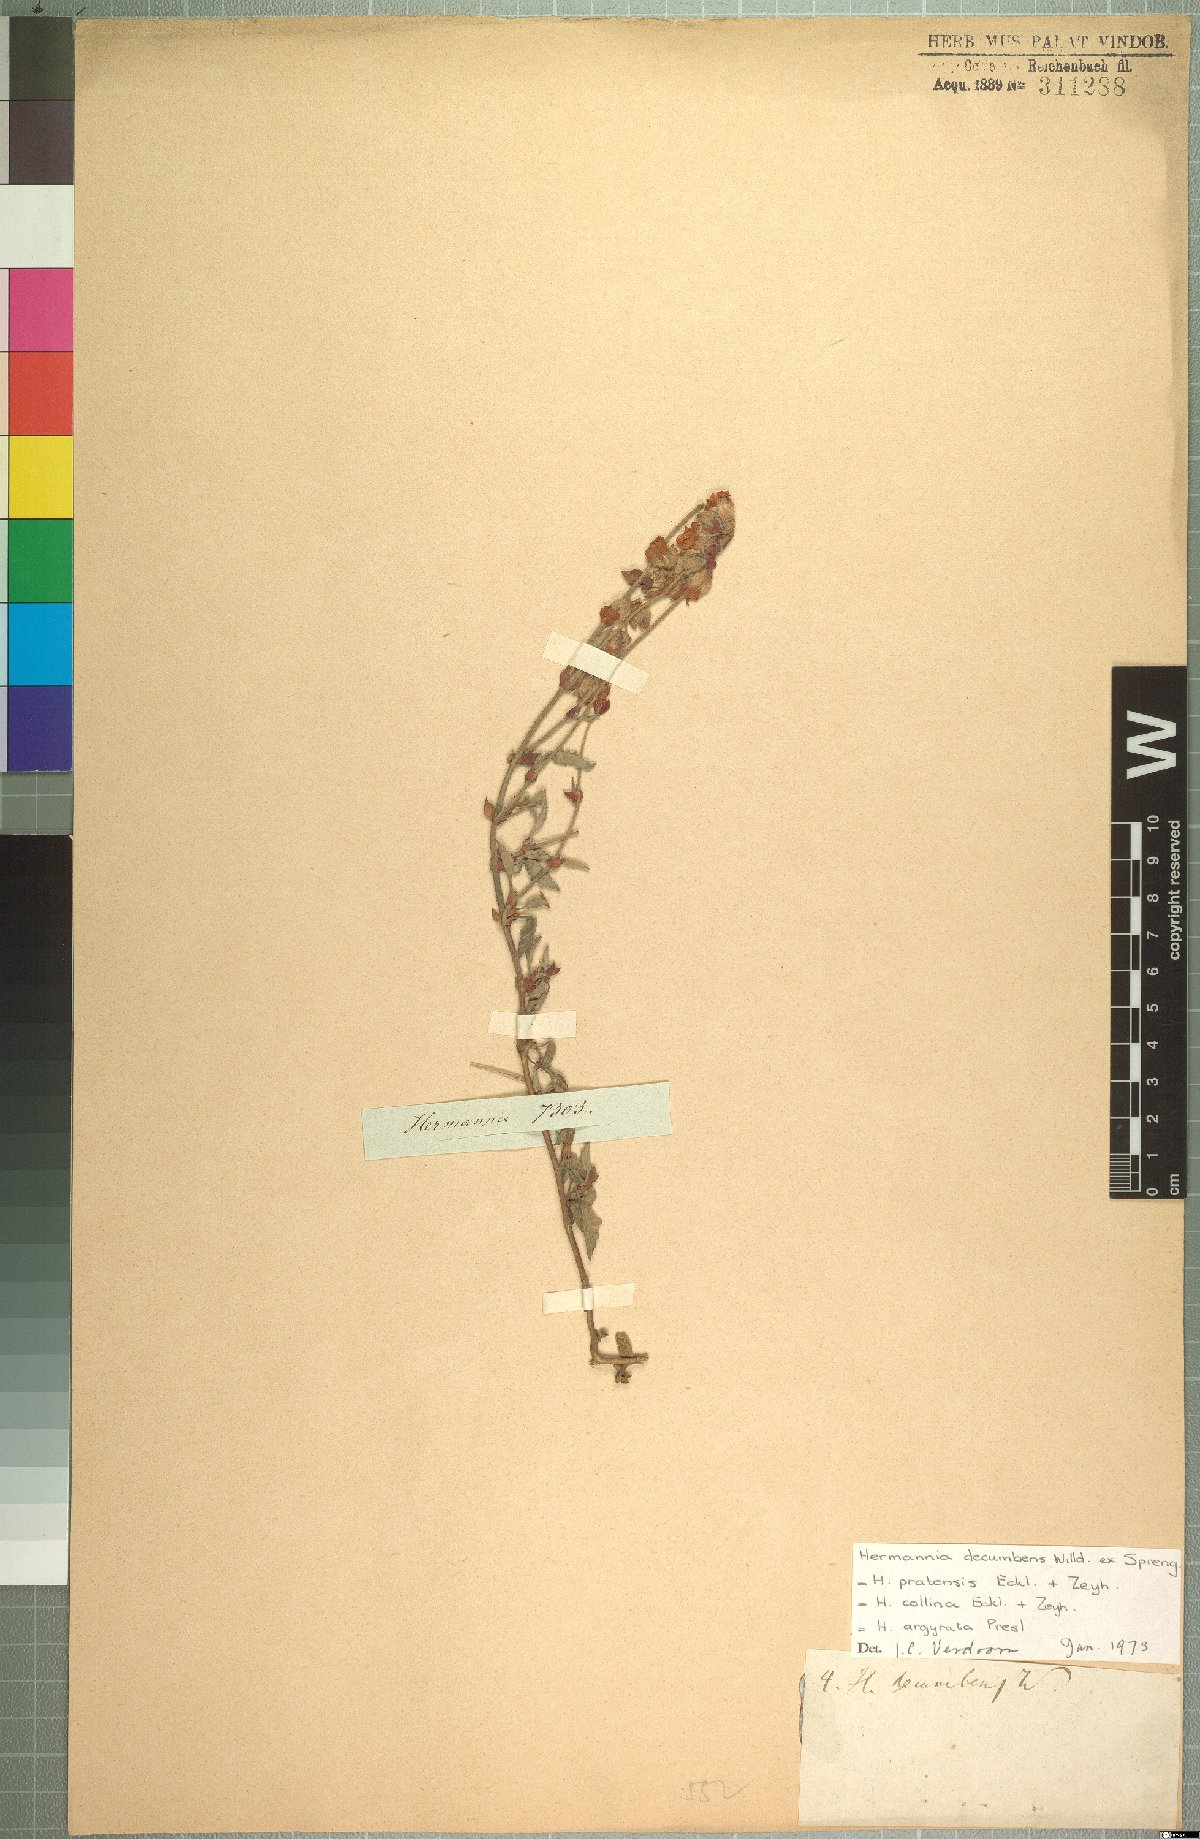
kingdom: Plantae
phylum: Tracheophyta
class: Magnoliopsida
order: Malvales
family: Malvaceae
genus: Hermannia
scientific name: Hermannia decumbens
